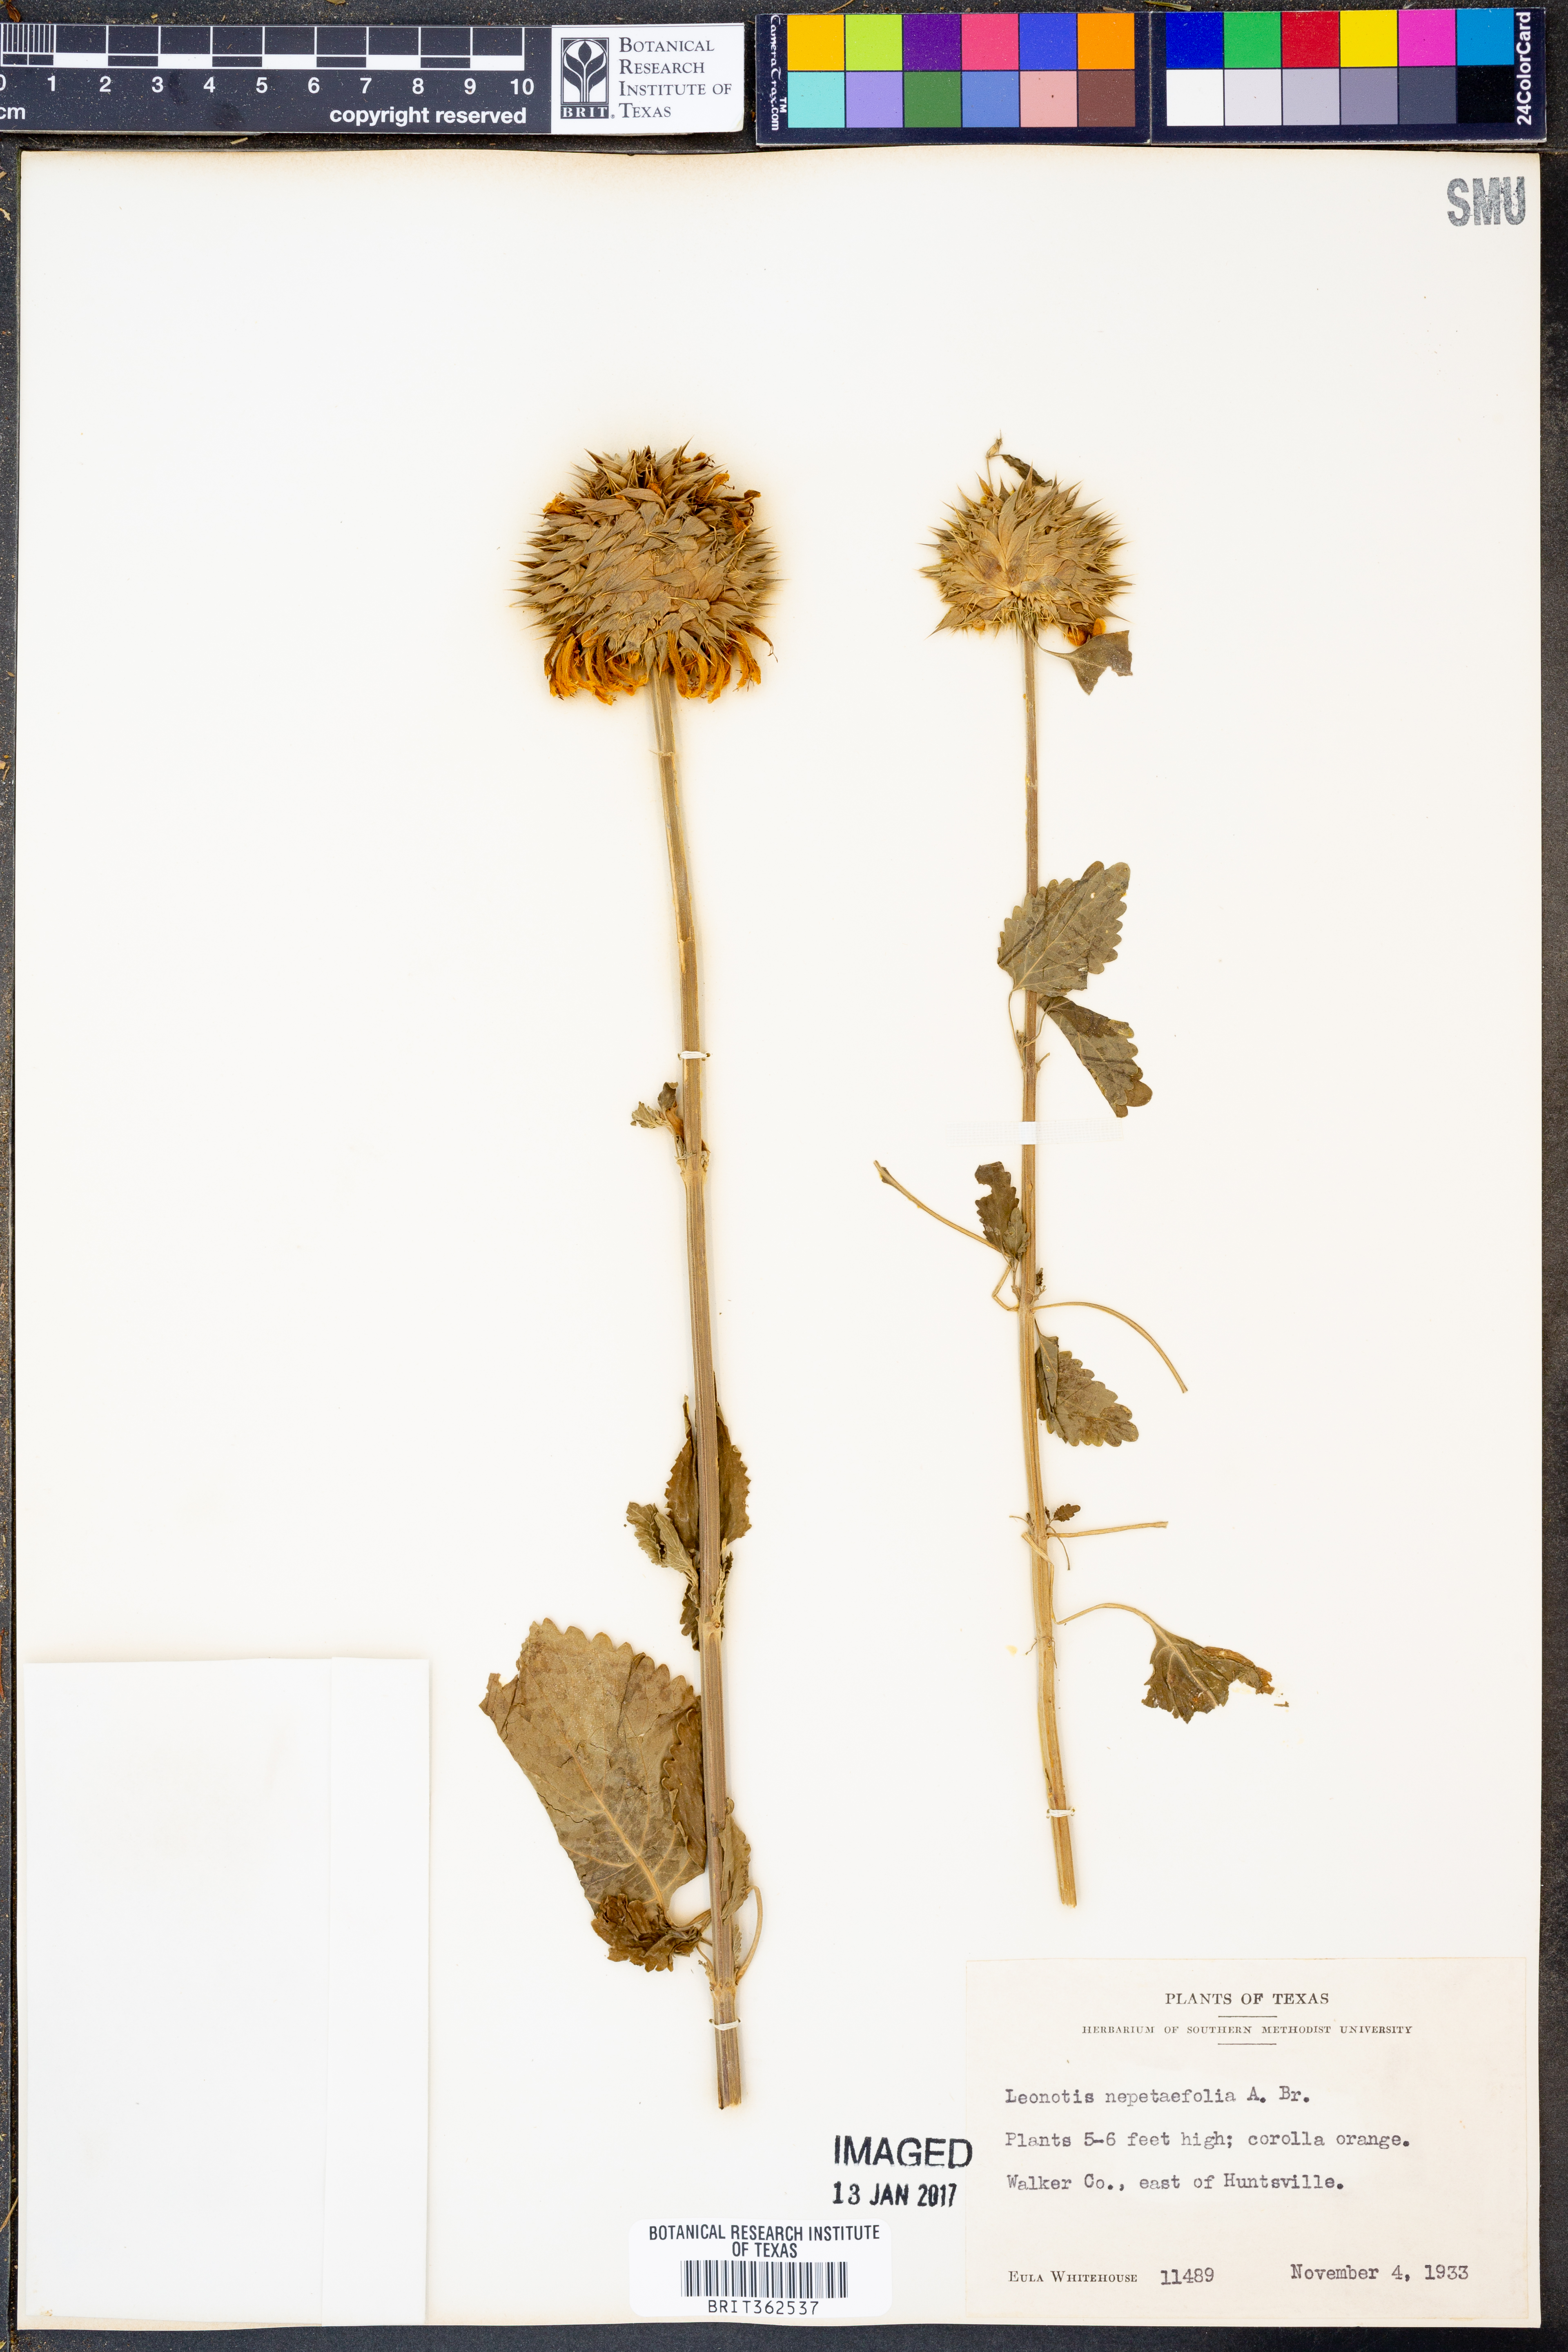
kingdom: Plantae
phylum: Tracheophyta
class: Magnoliopsida
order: Lamiales
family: Lamiaceae
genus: Leonotis
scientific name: Leonotis nepetifolia
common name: Christmas candlestick
